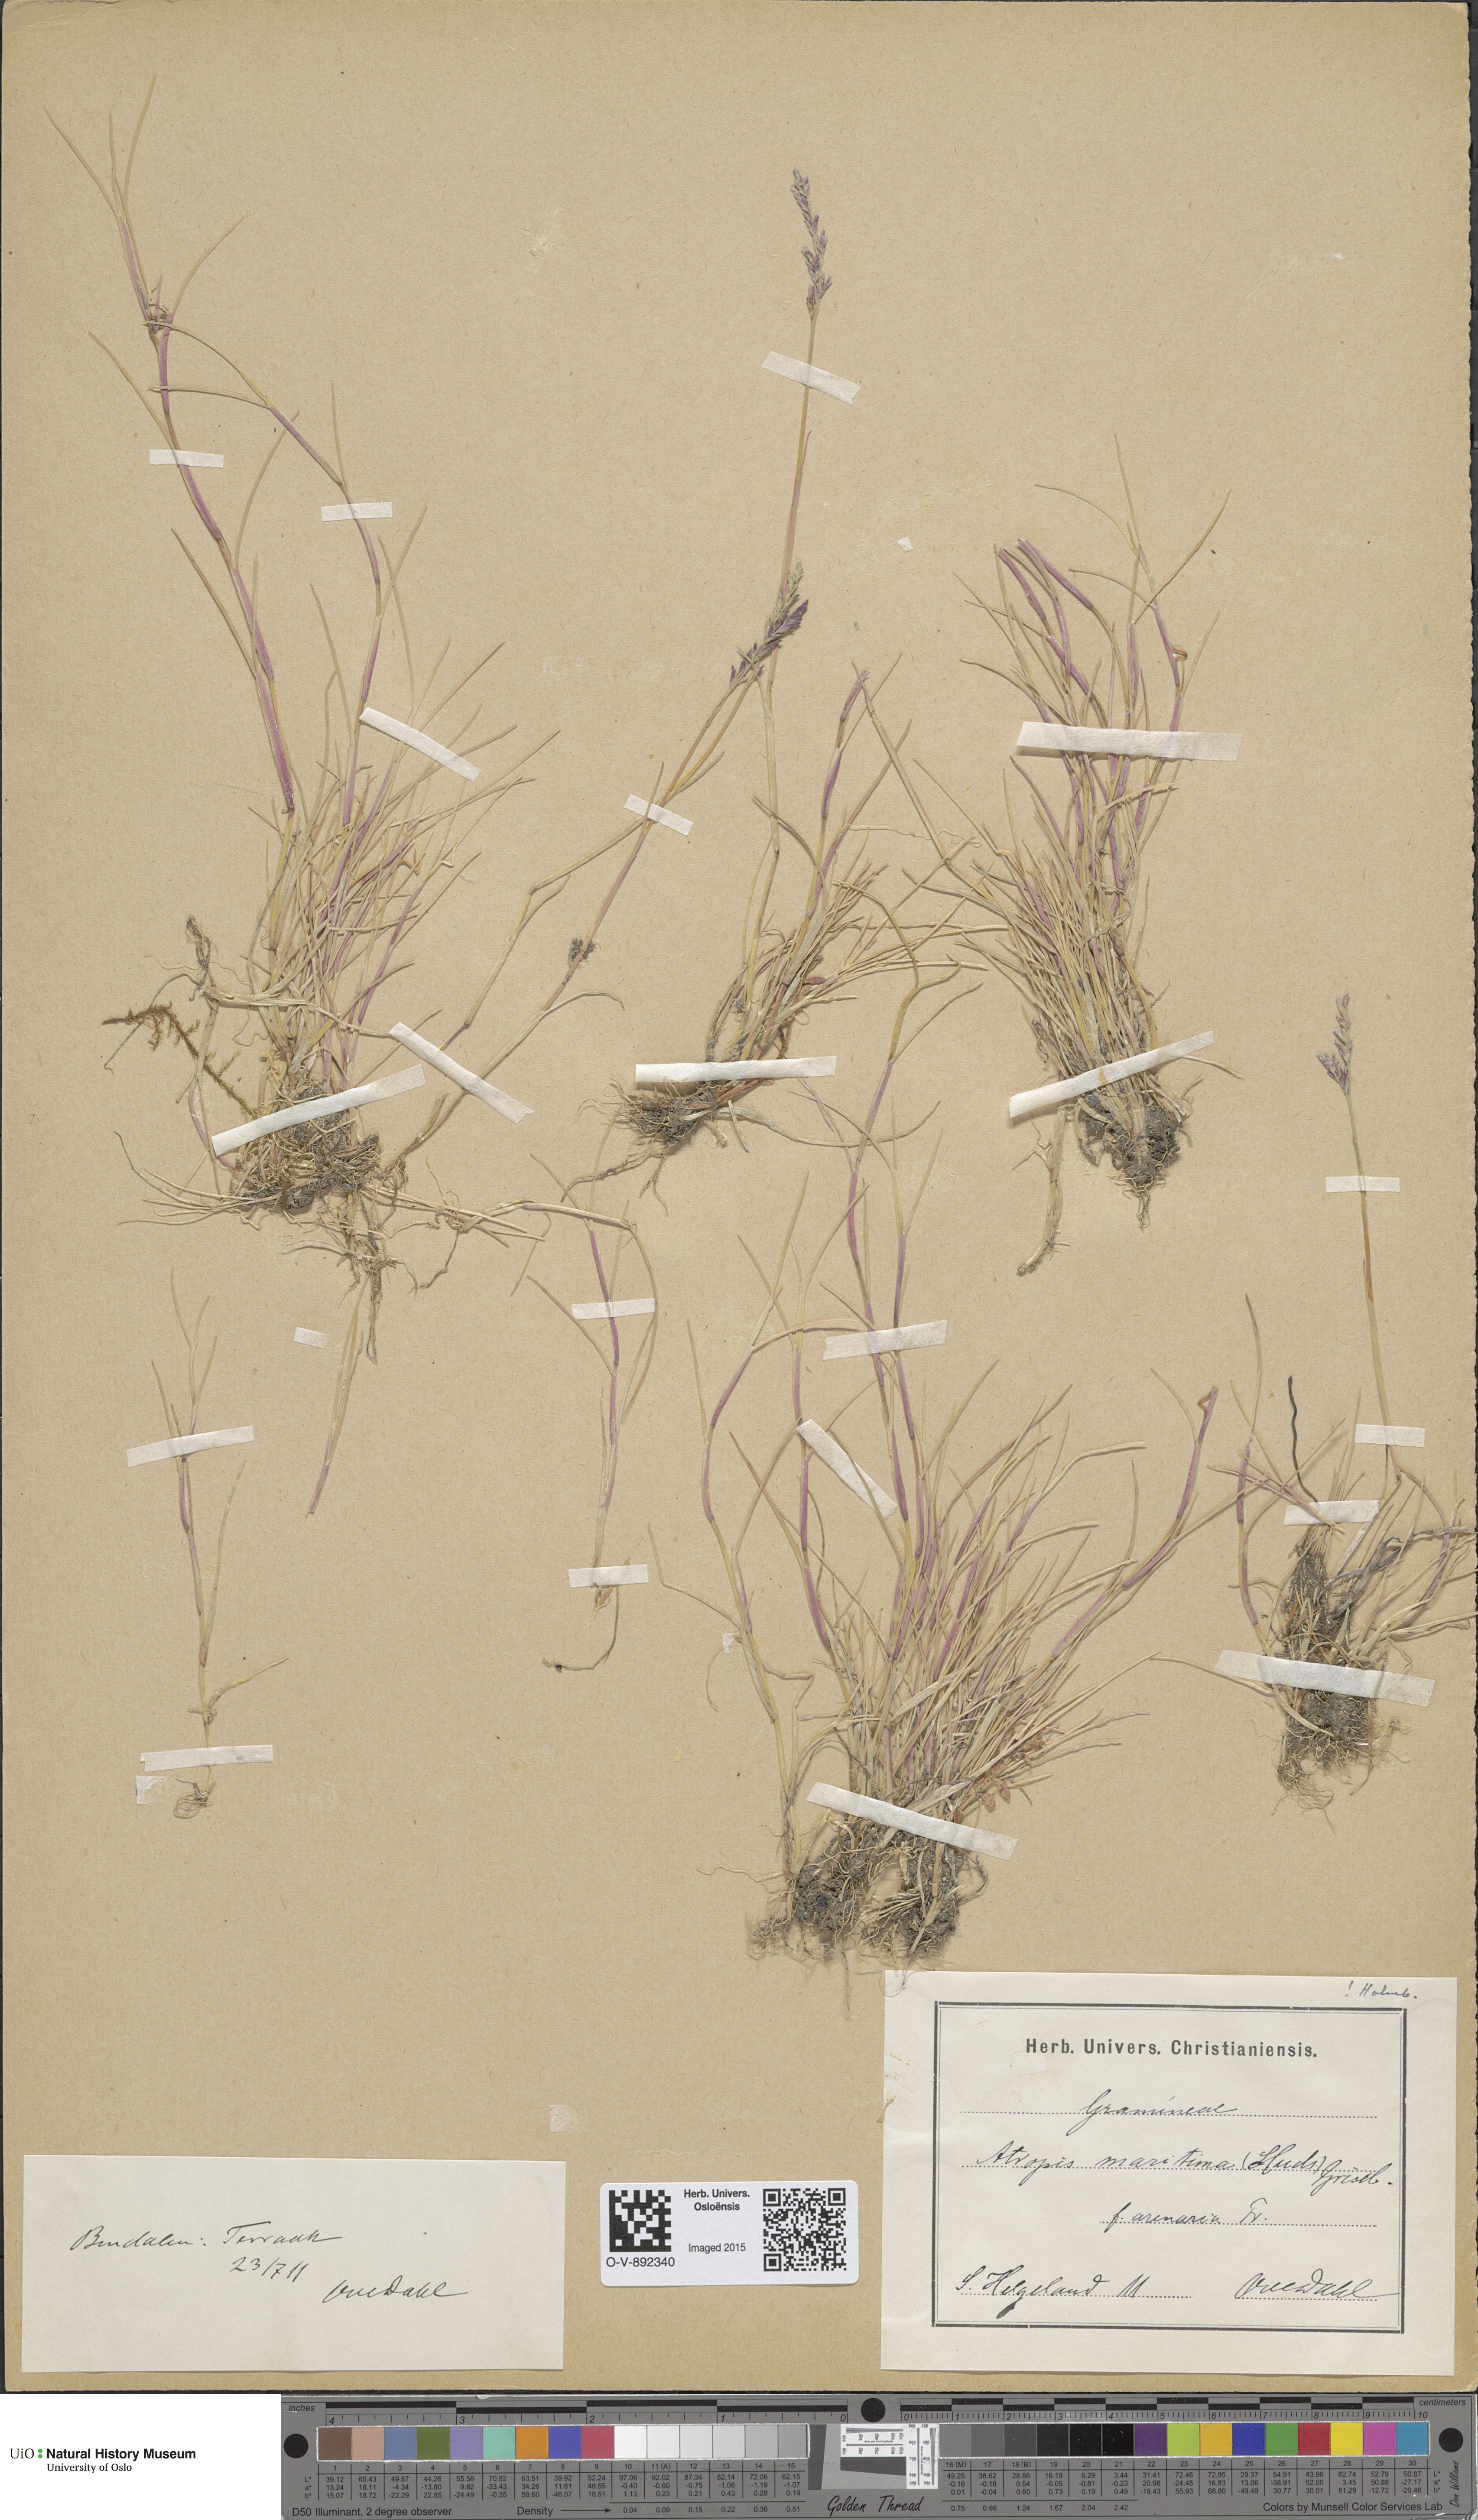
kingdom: Plantae
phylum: Tracheophyta
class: Liliopsida
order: Poales
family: Poaceae
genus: Puccinellia
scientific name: Puccinellia maritima
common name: Common saltmarsh grass
